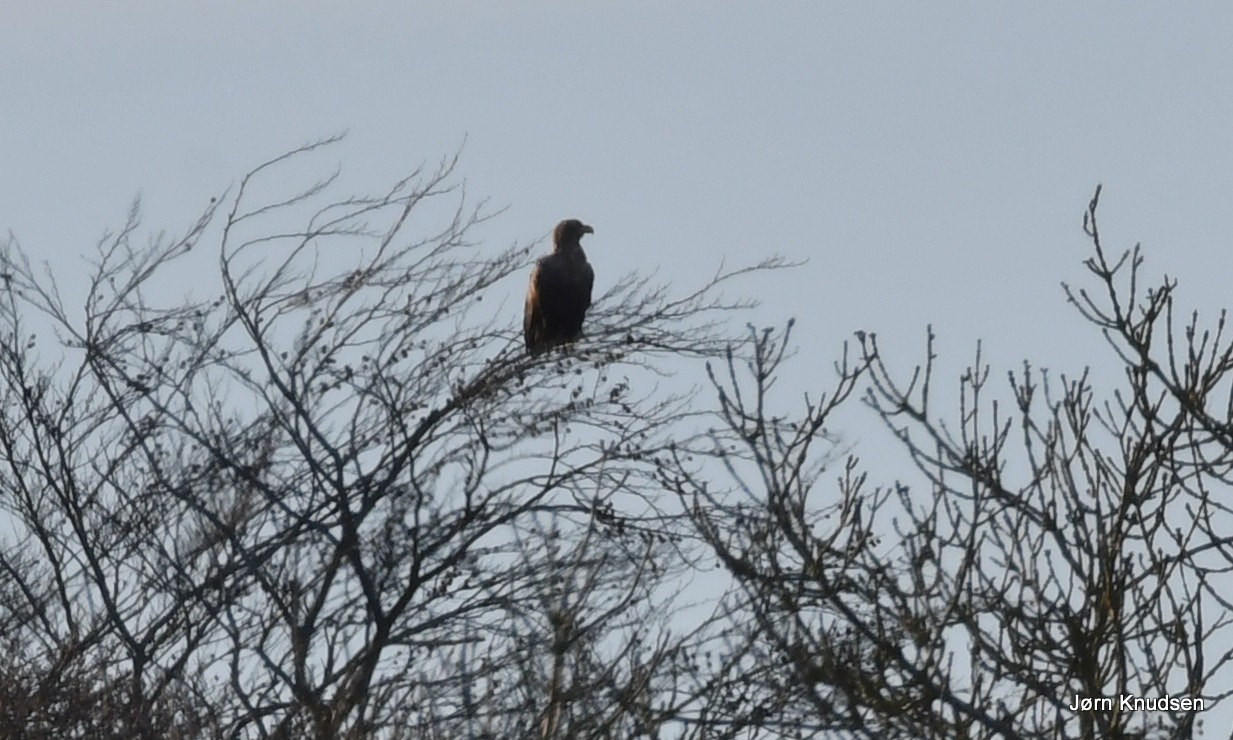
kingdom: Animalia
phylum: Chordata
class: Aves
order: Accipitriformes
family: Accipitridae
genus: Haliaeetus
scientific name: Haliaeetus albicilla
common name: Havørn
